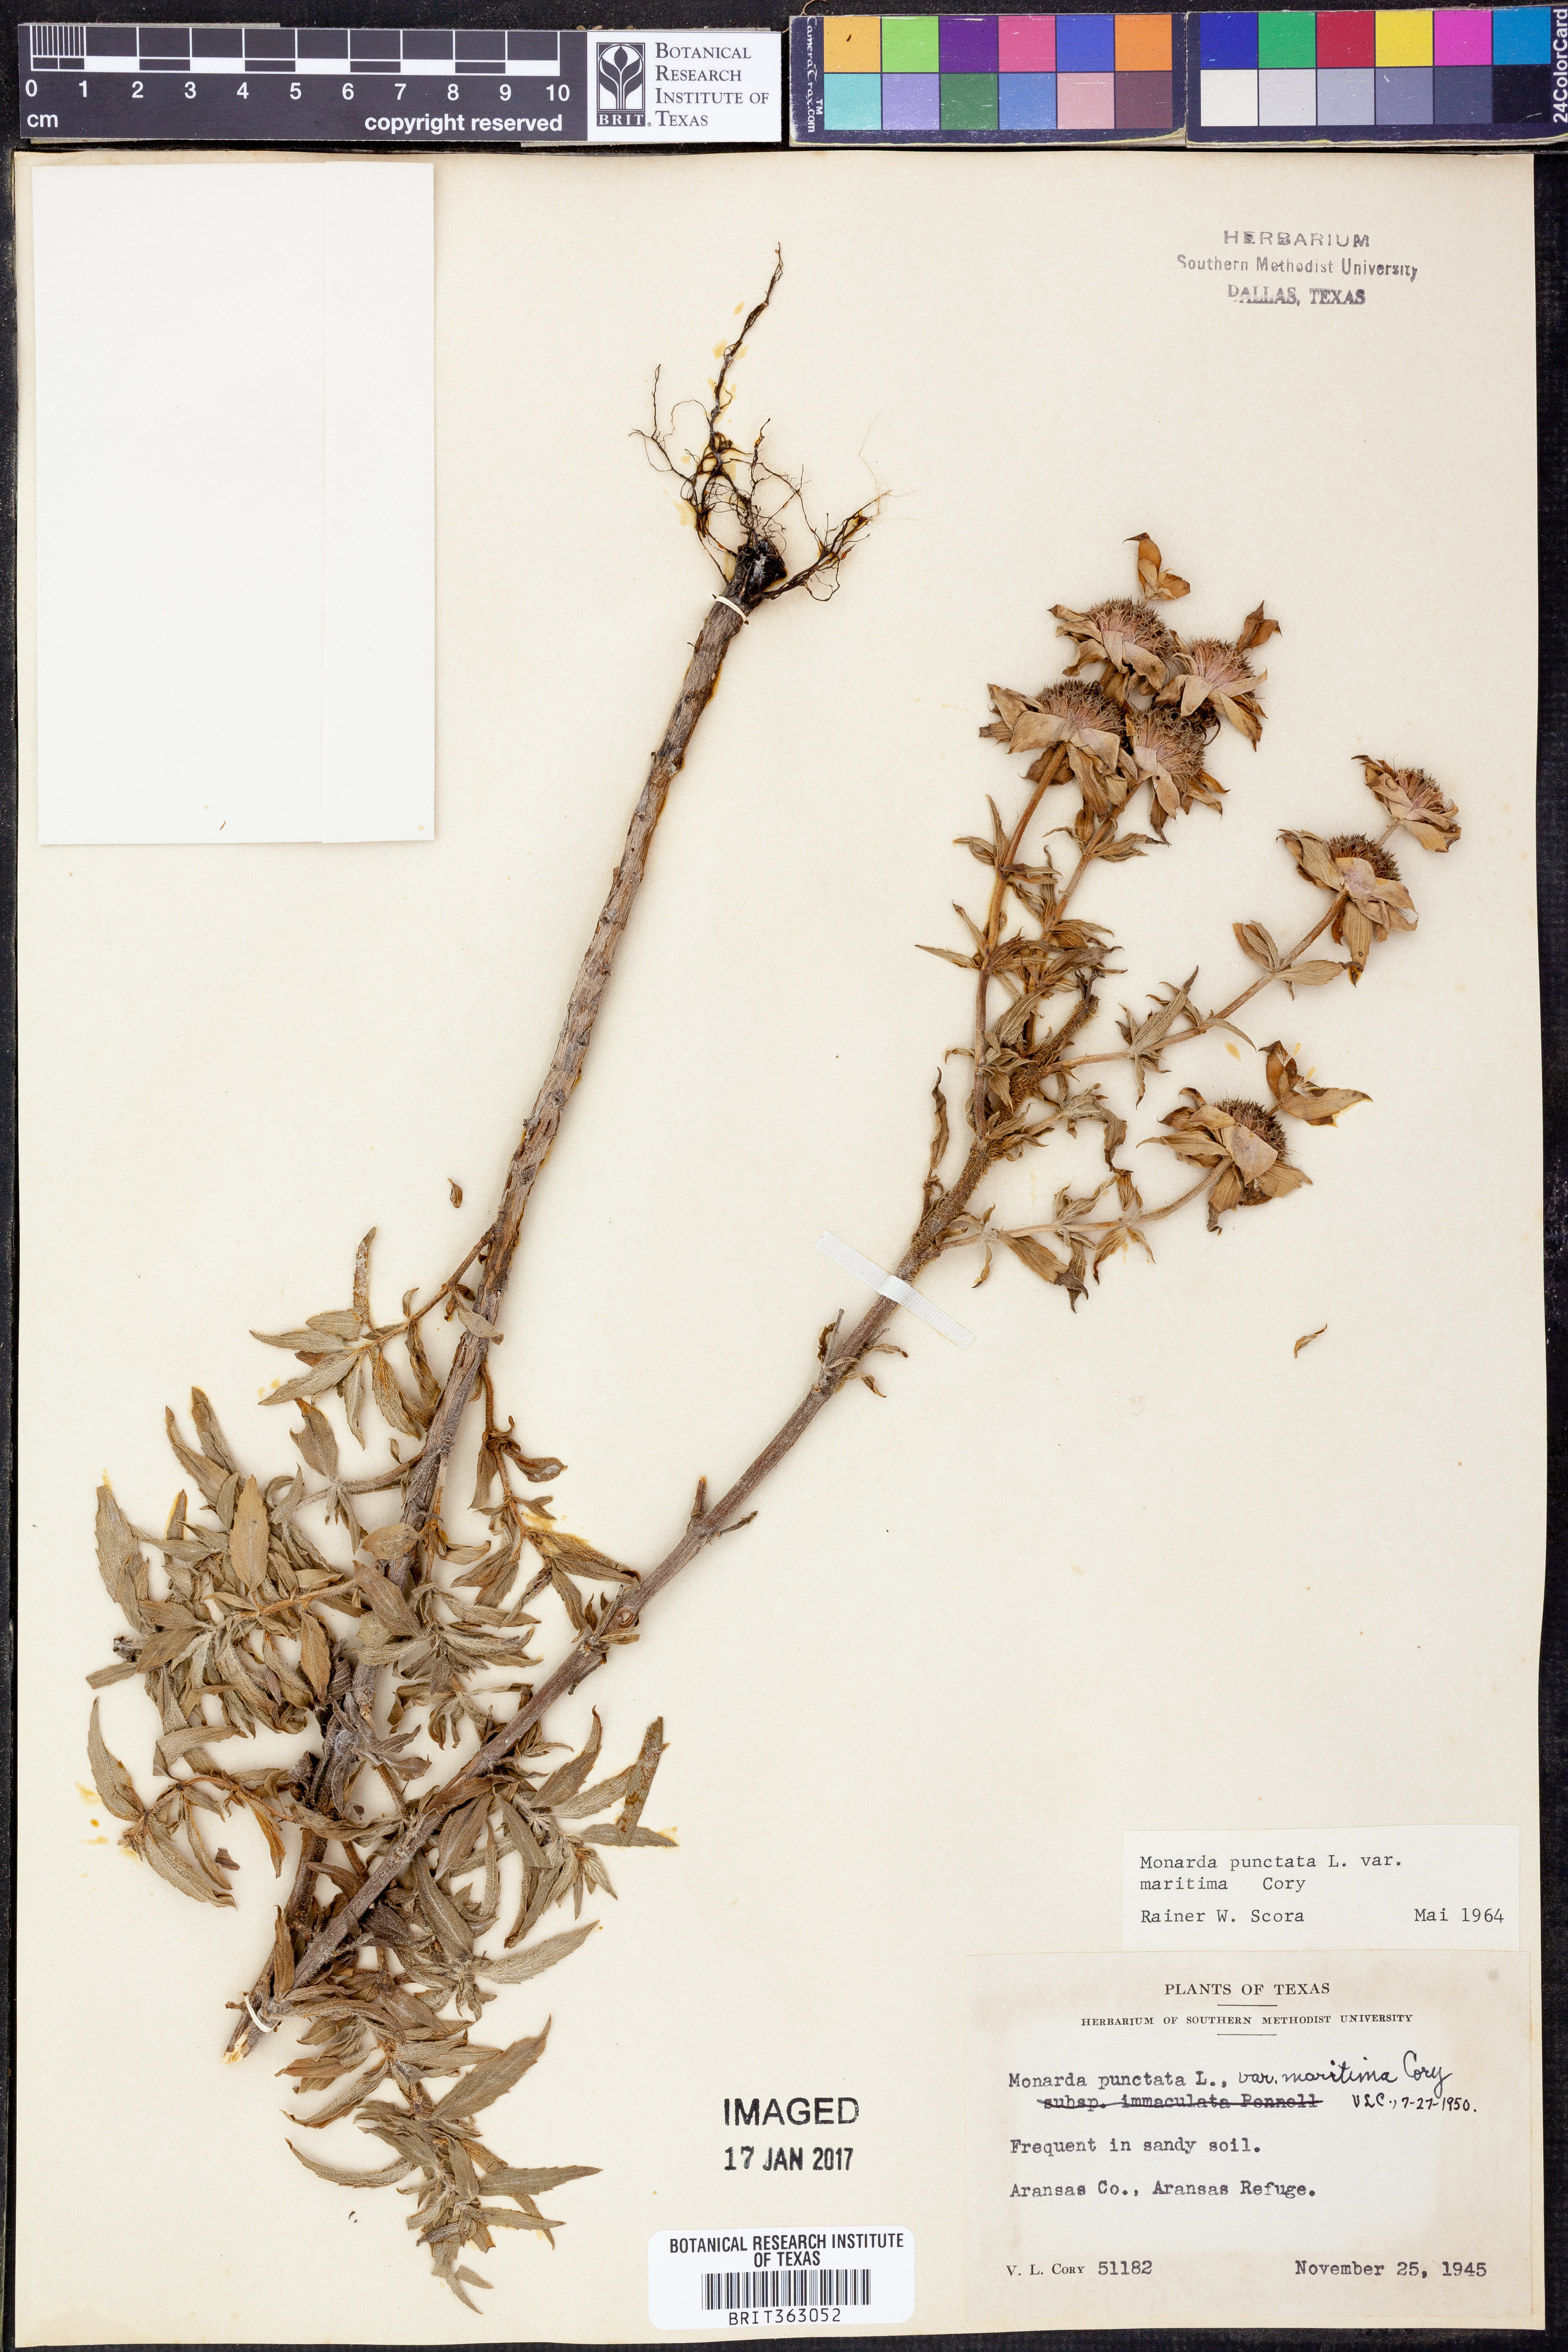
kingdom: Plantae
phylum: Tracheophyta
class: Magnoliopsida
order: Lamiales
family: Lamiaceae
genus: Monarda
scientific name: Monarda maritima
